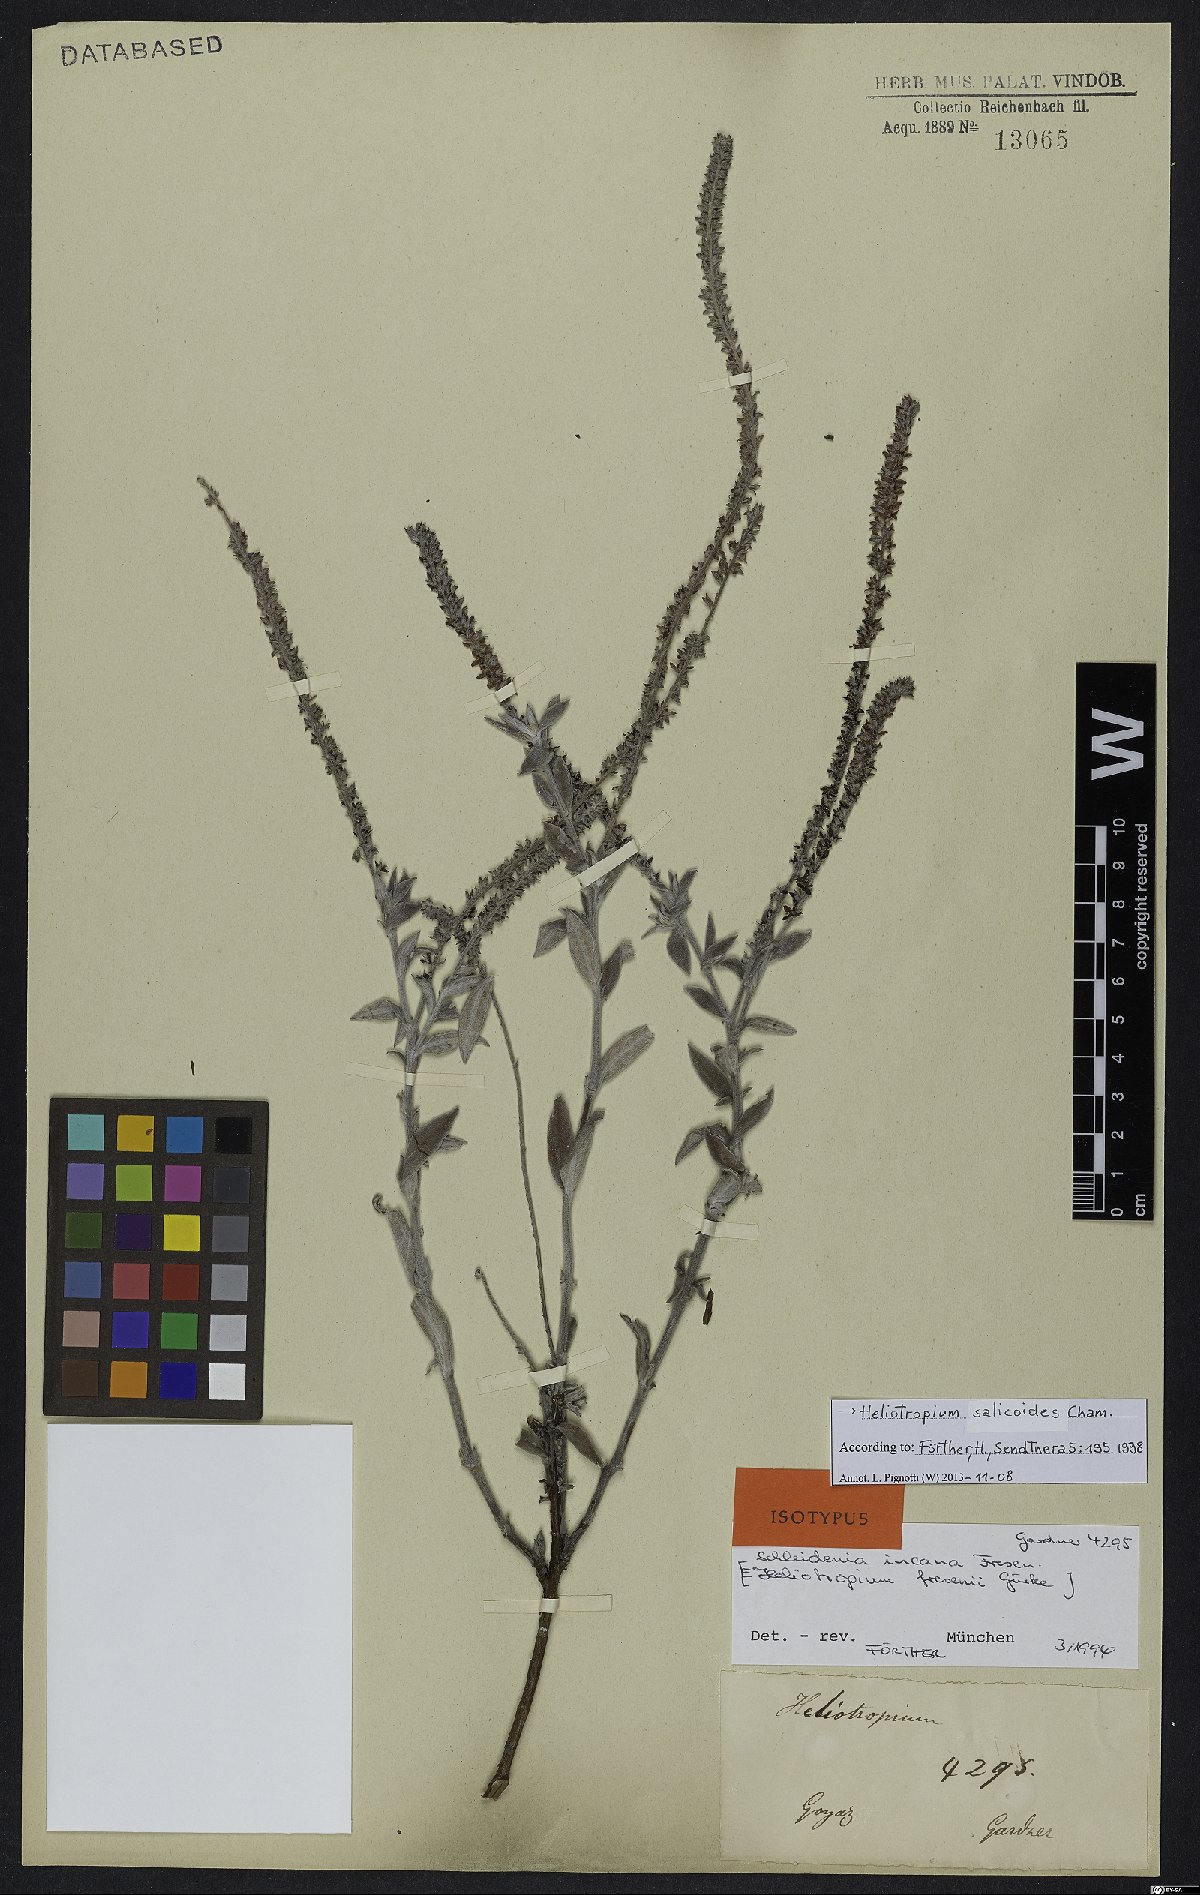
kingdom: Plantae
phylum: Tracheophyta
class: Magnoliopsida
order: Boraginales
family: Heliotropiaceae
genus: Euploca
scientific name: Euploca salicoides
